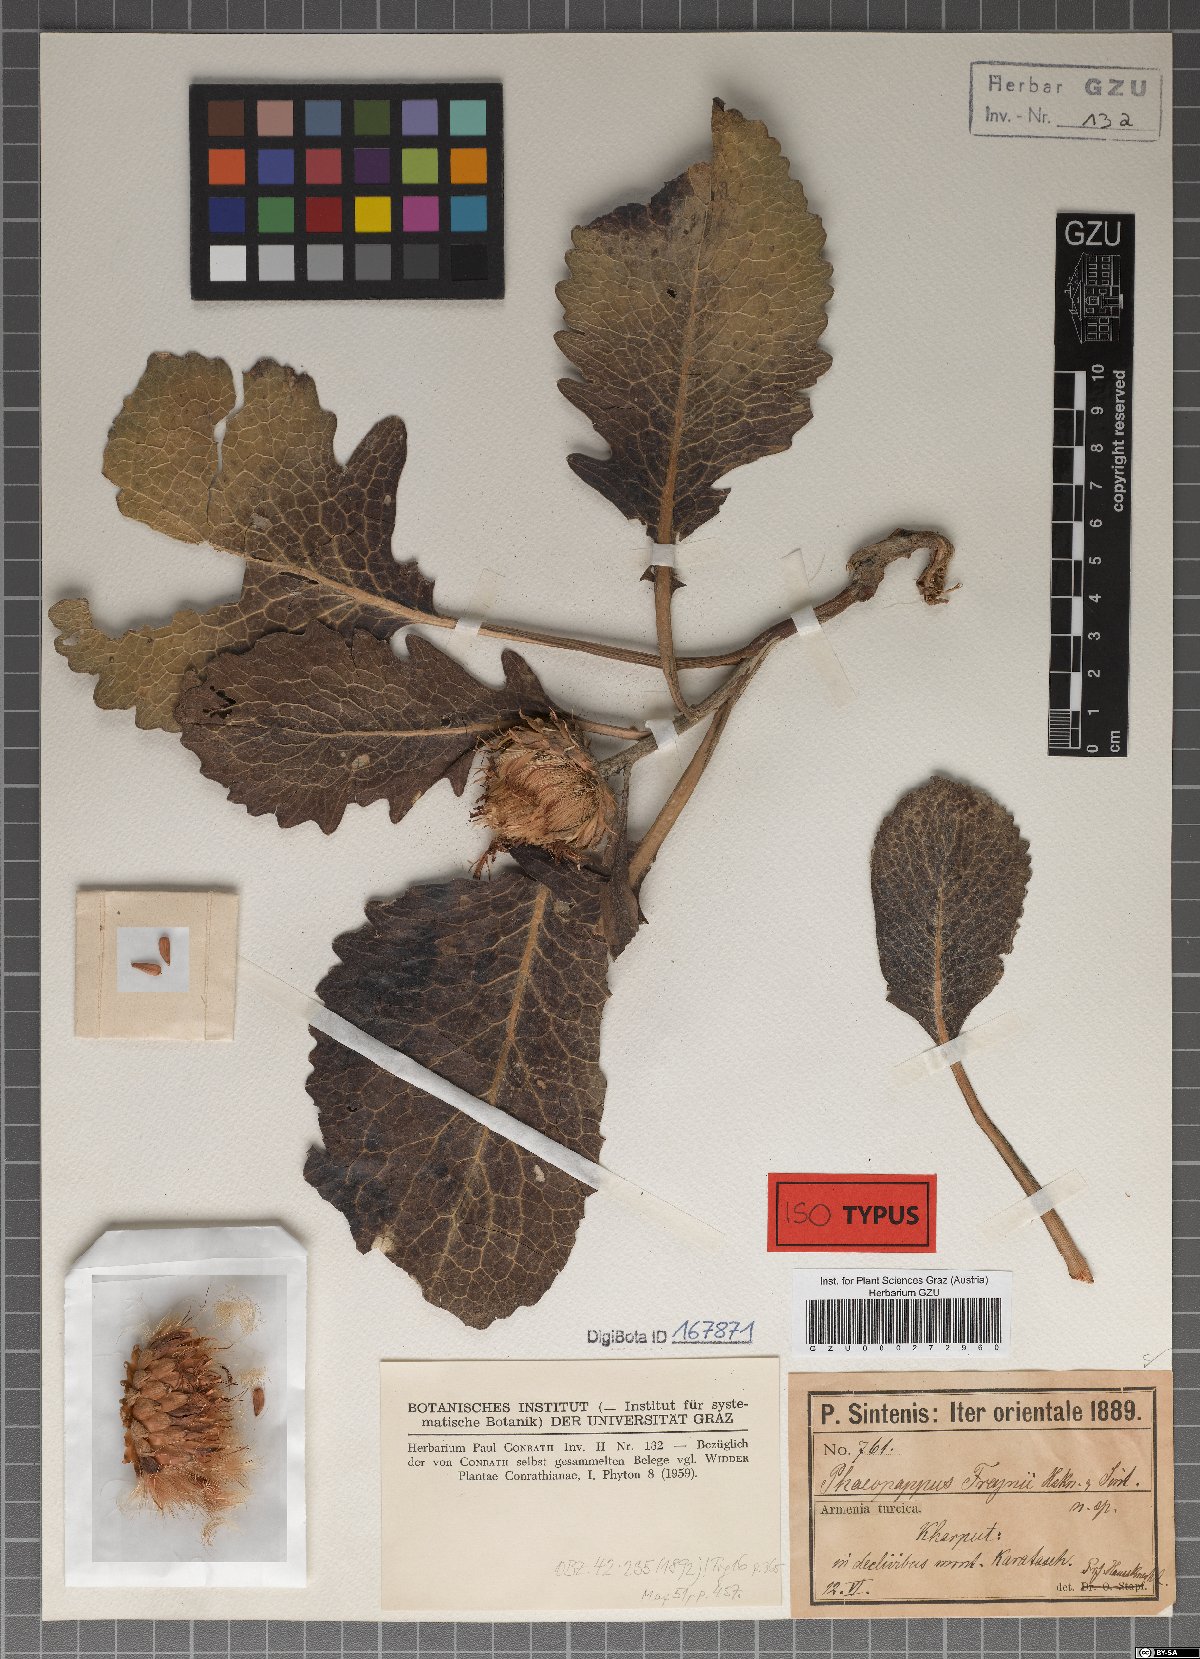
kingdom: Plantae
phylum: Tracheophyta
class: Magnoliopsida
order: Asterales
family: Asteraceae
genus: Klasea
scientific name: Klasea serratuloides
